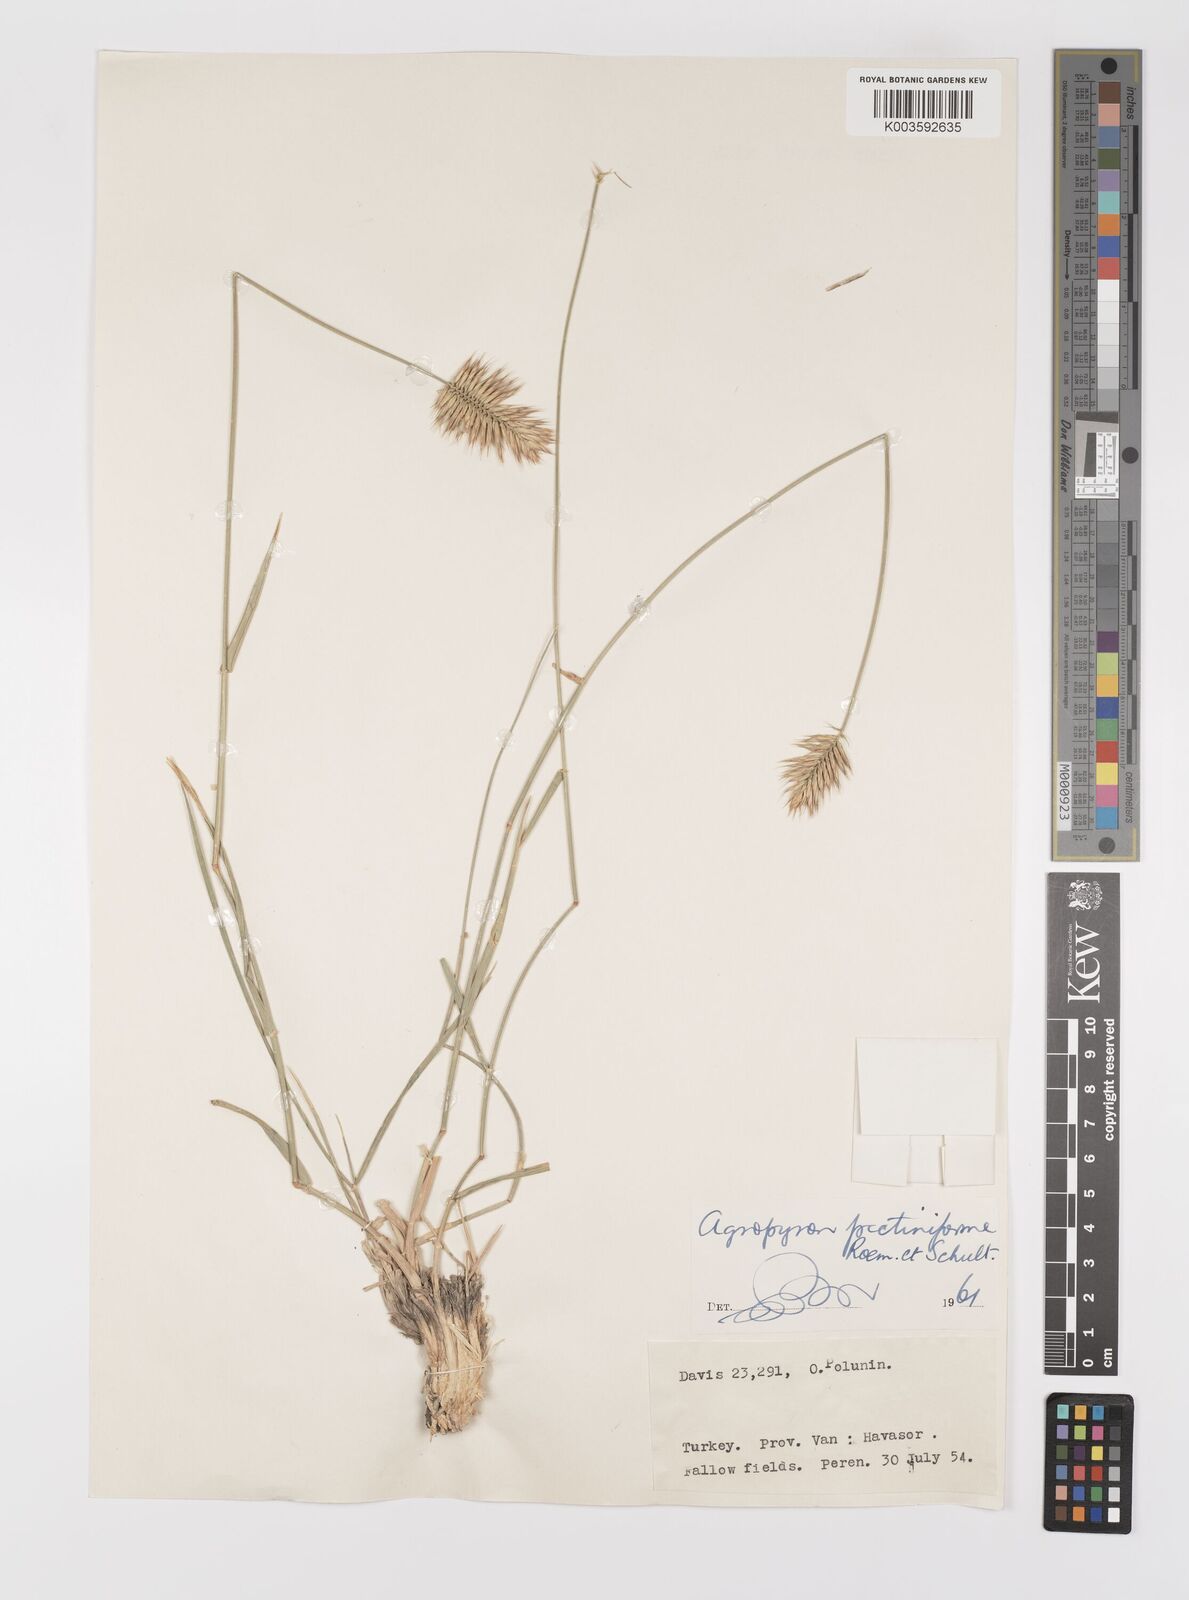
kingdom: Plantae
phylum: Tracheophyta
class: Liliopsida
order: Poales
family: Poaceae
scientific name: Poaceae
